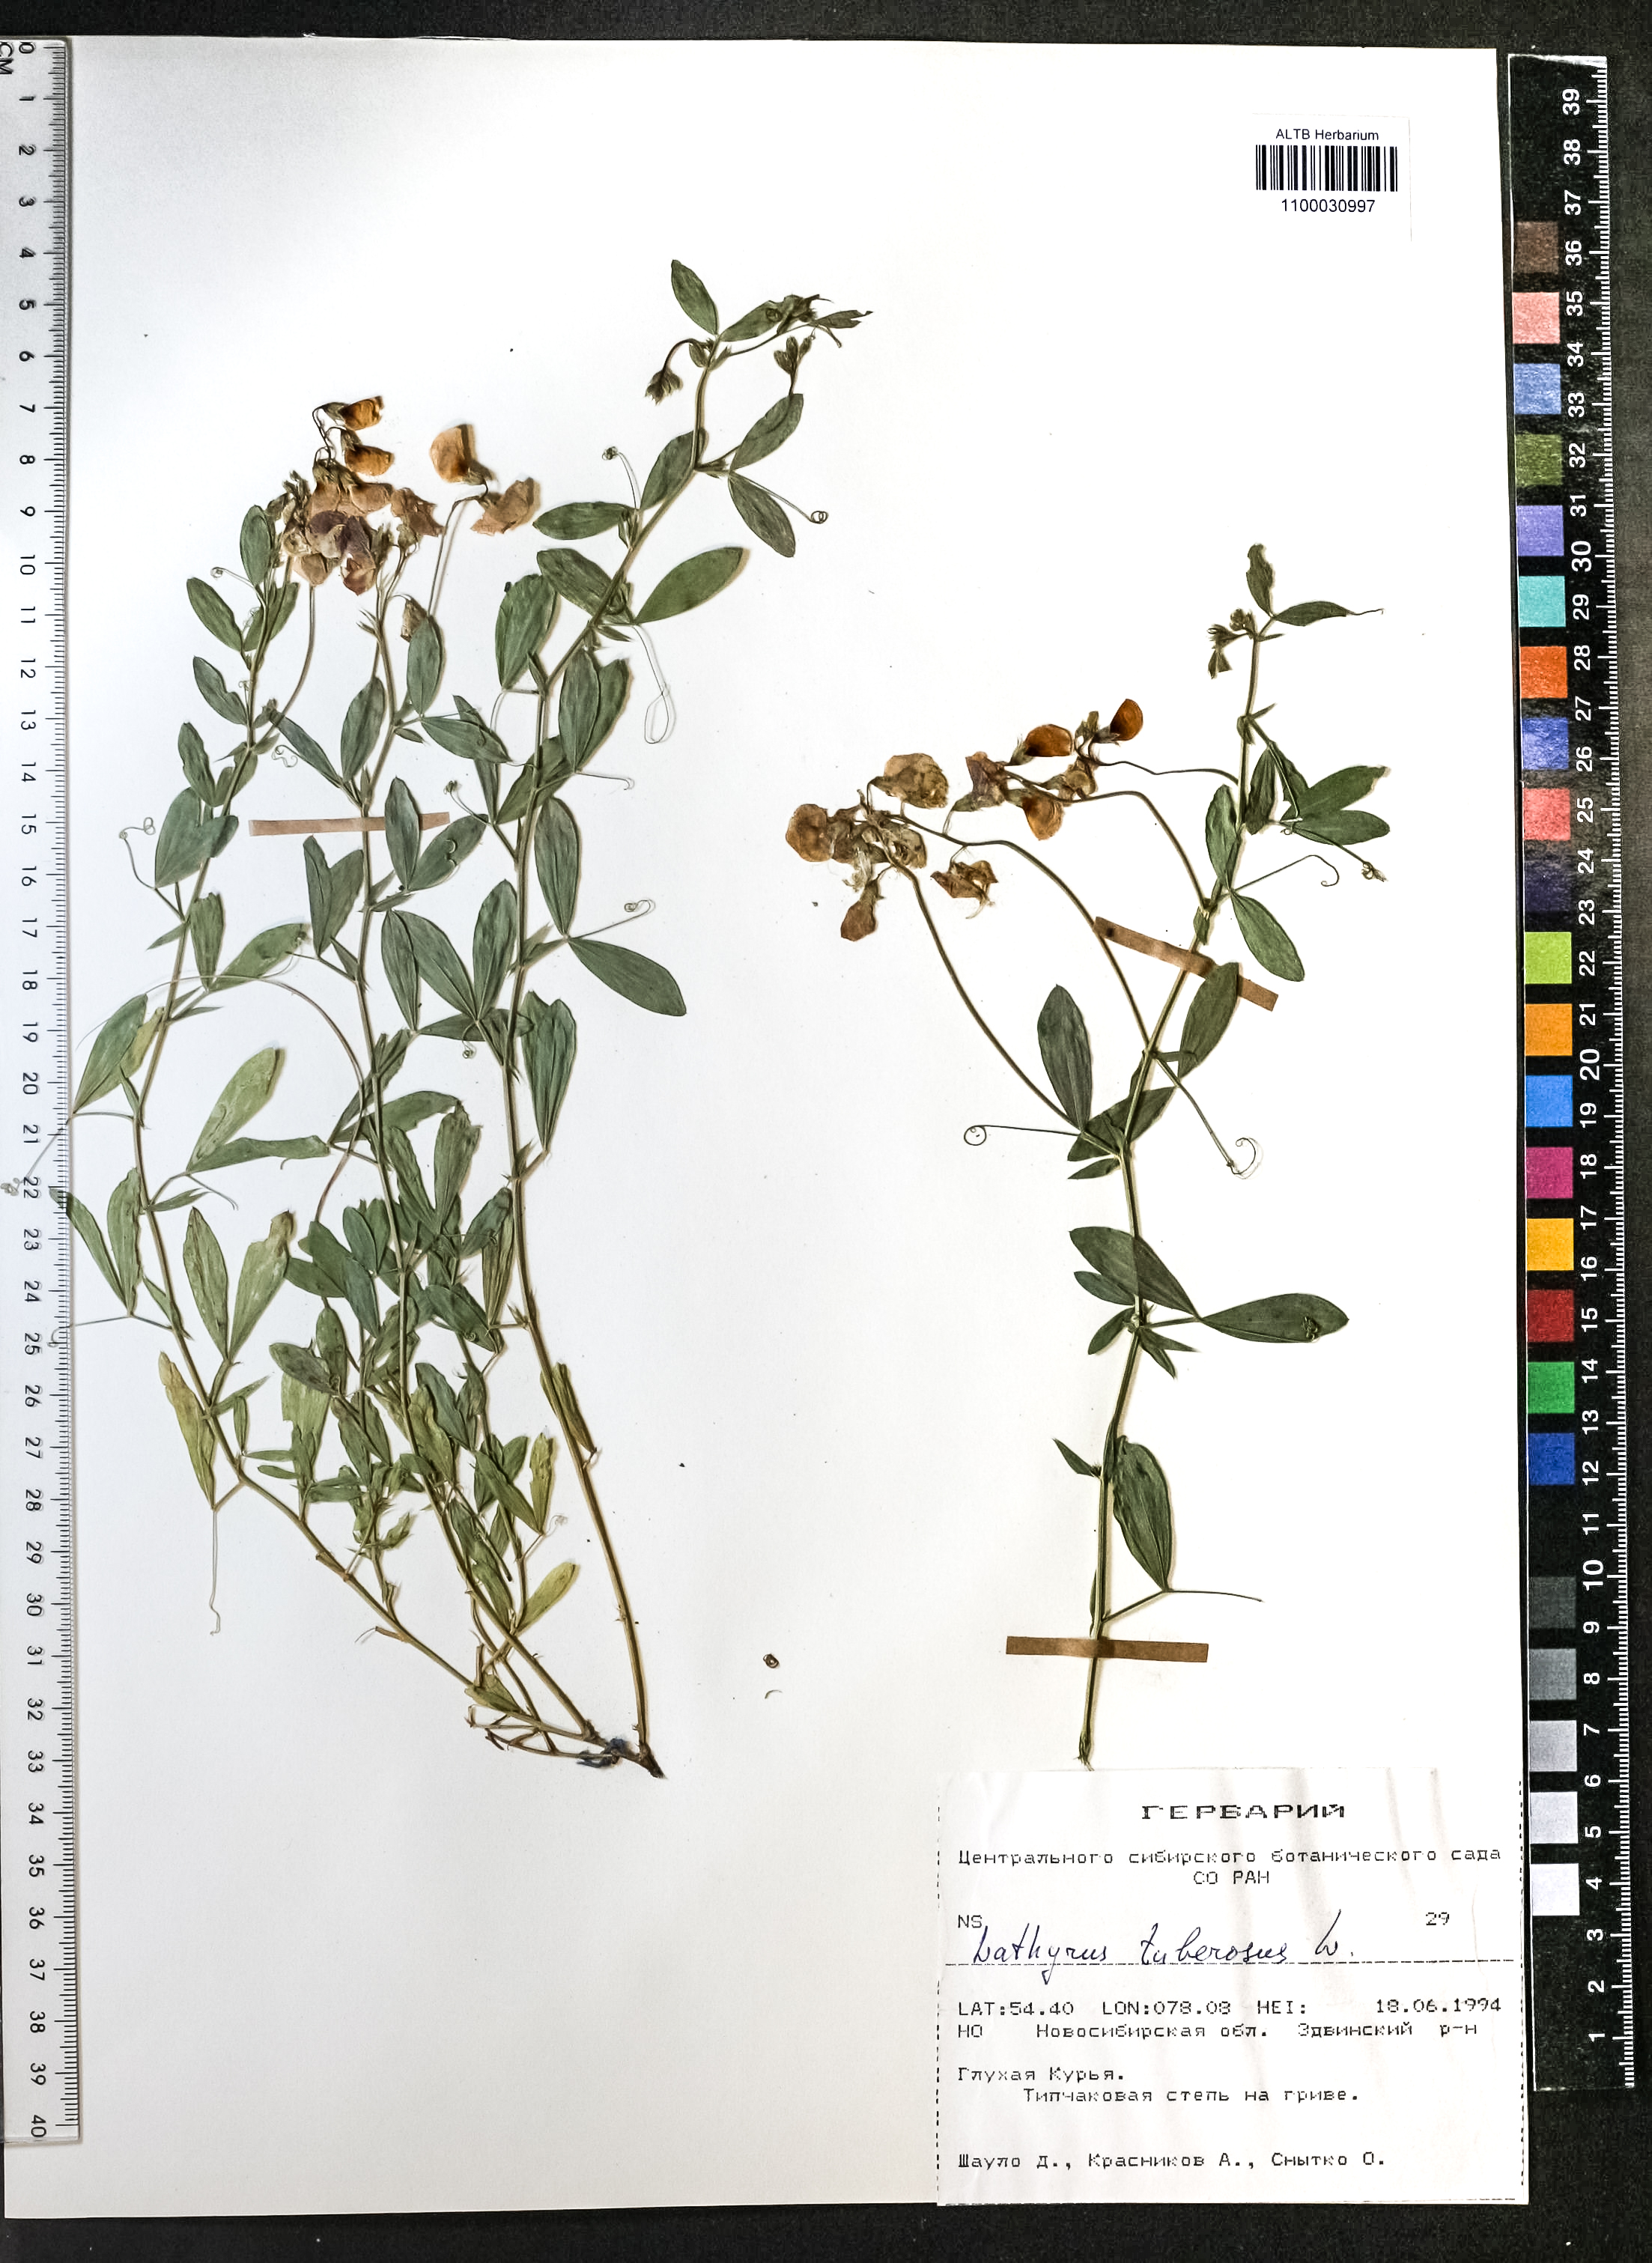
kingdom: Plantae
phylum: Tracheophyta
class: Magnoliopsida
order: Fabales
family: Fabaceae
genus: Lathyrus
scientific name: Lathyrus tuberosus
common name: Tuberous pea
